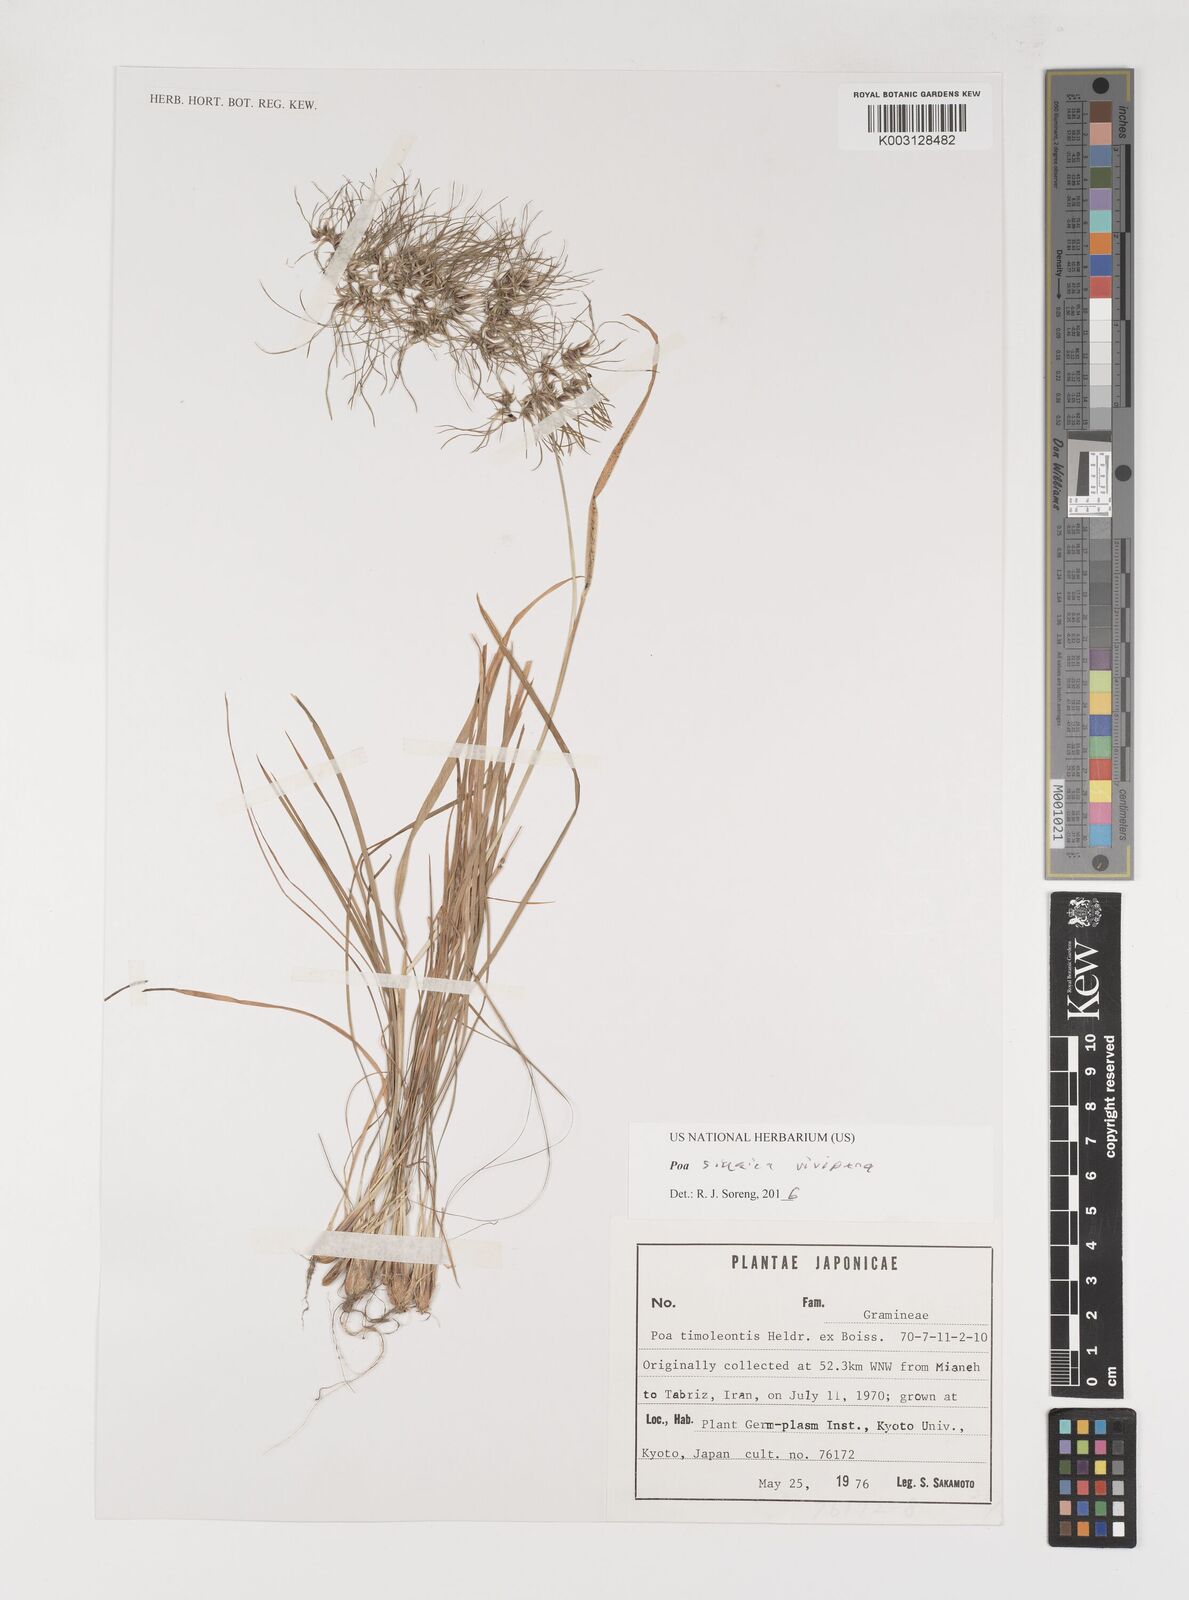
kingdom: Plantae
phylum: Tracheophyta
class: Liliopsida
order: Poales
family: Poaceae
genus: Poa
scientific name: Poa sinaica
